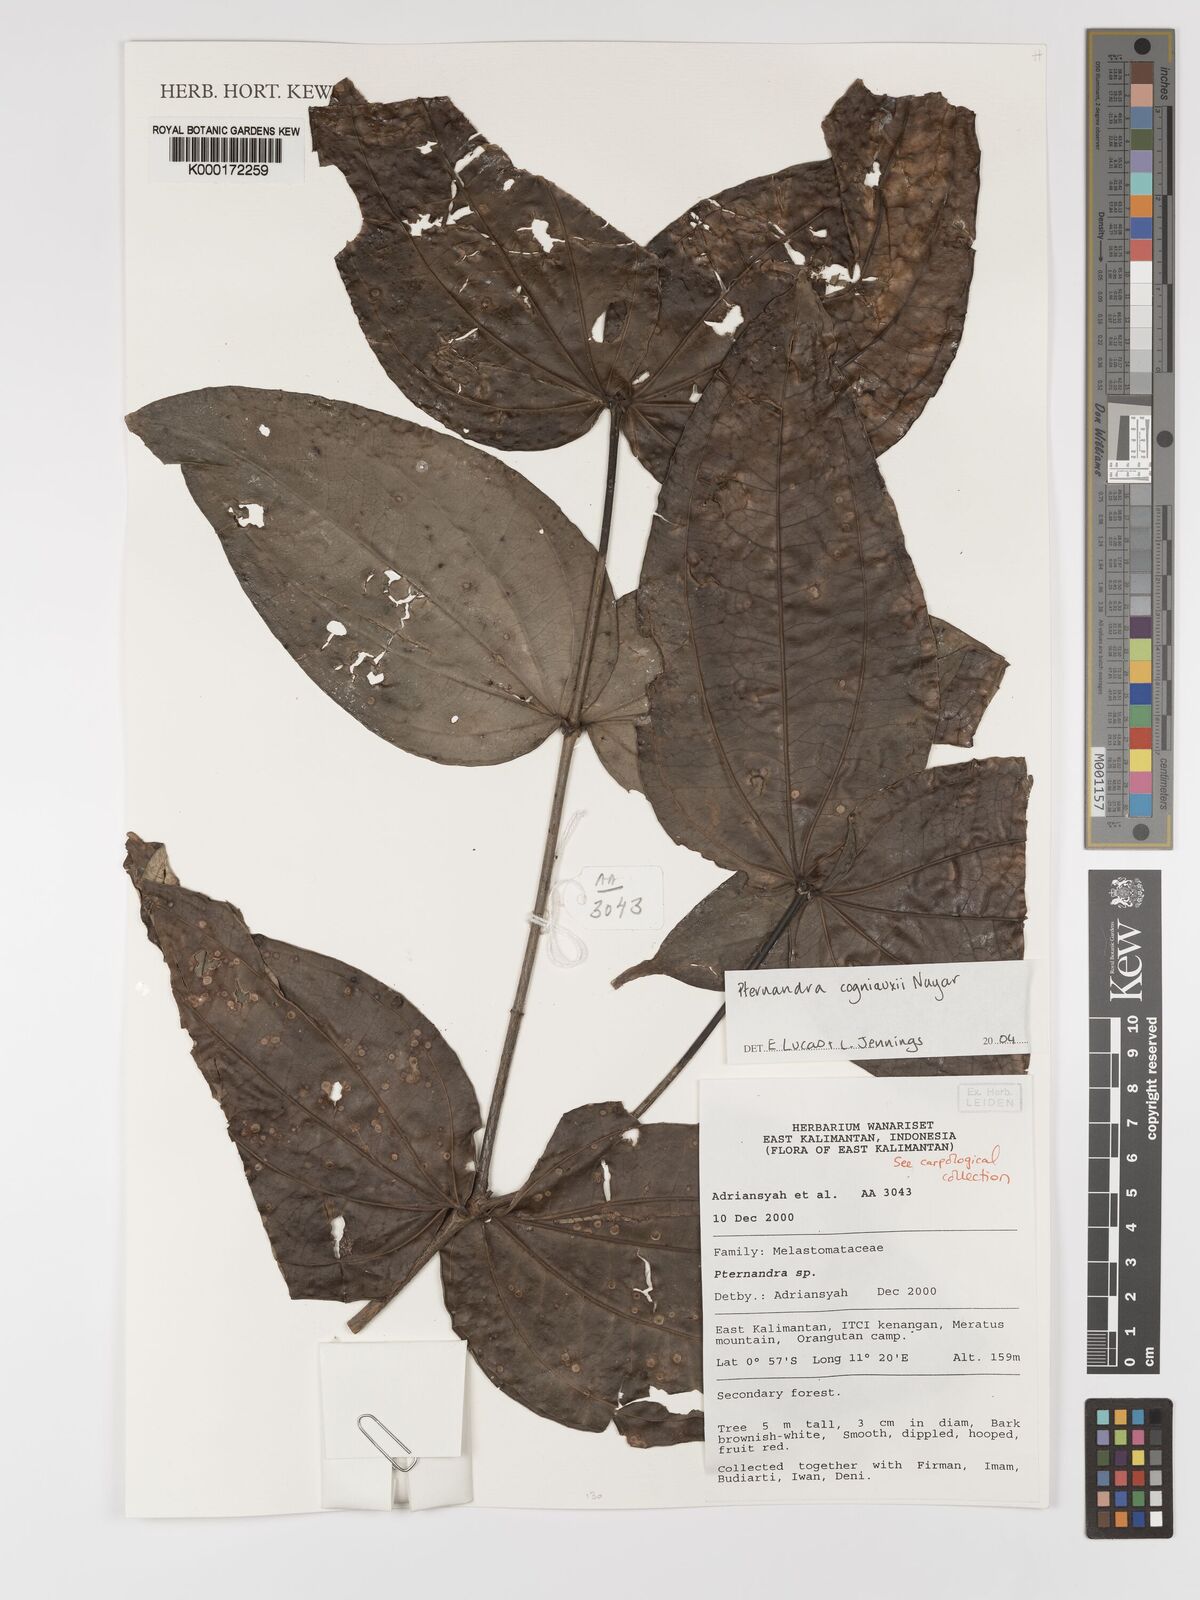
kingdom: Plantae
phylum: Tracheophyta
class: Magnoliopsida
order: Myrtales
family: Melastomataceae
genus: Pternandra
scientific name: Pternandra cogniauxii
